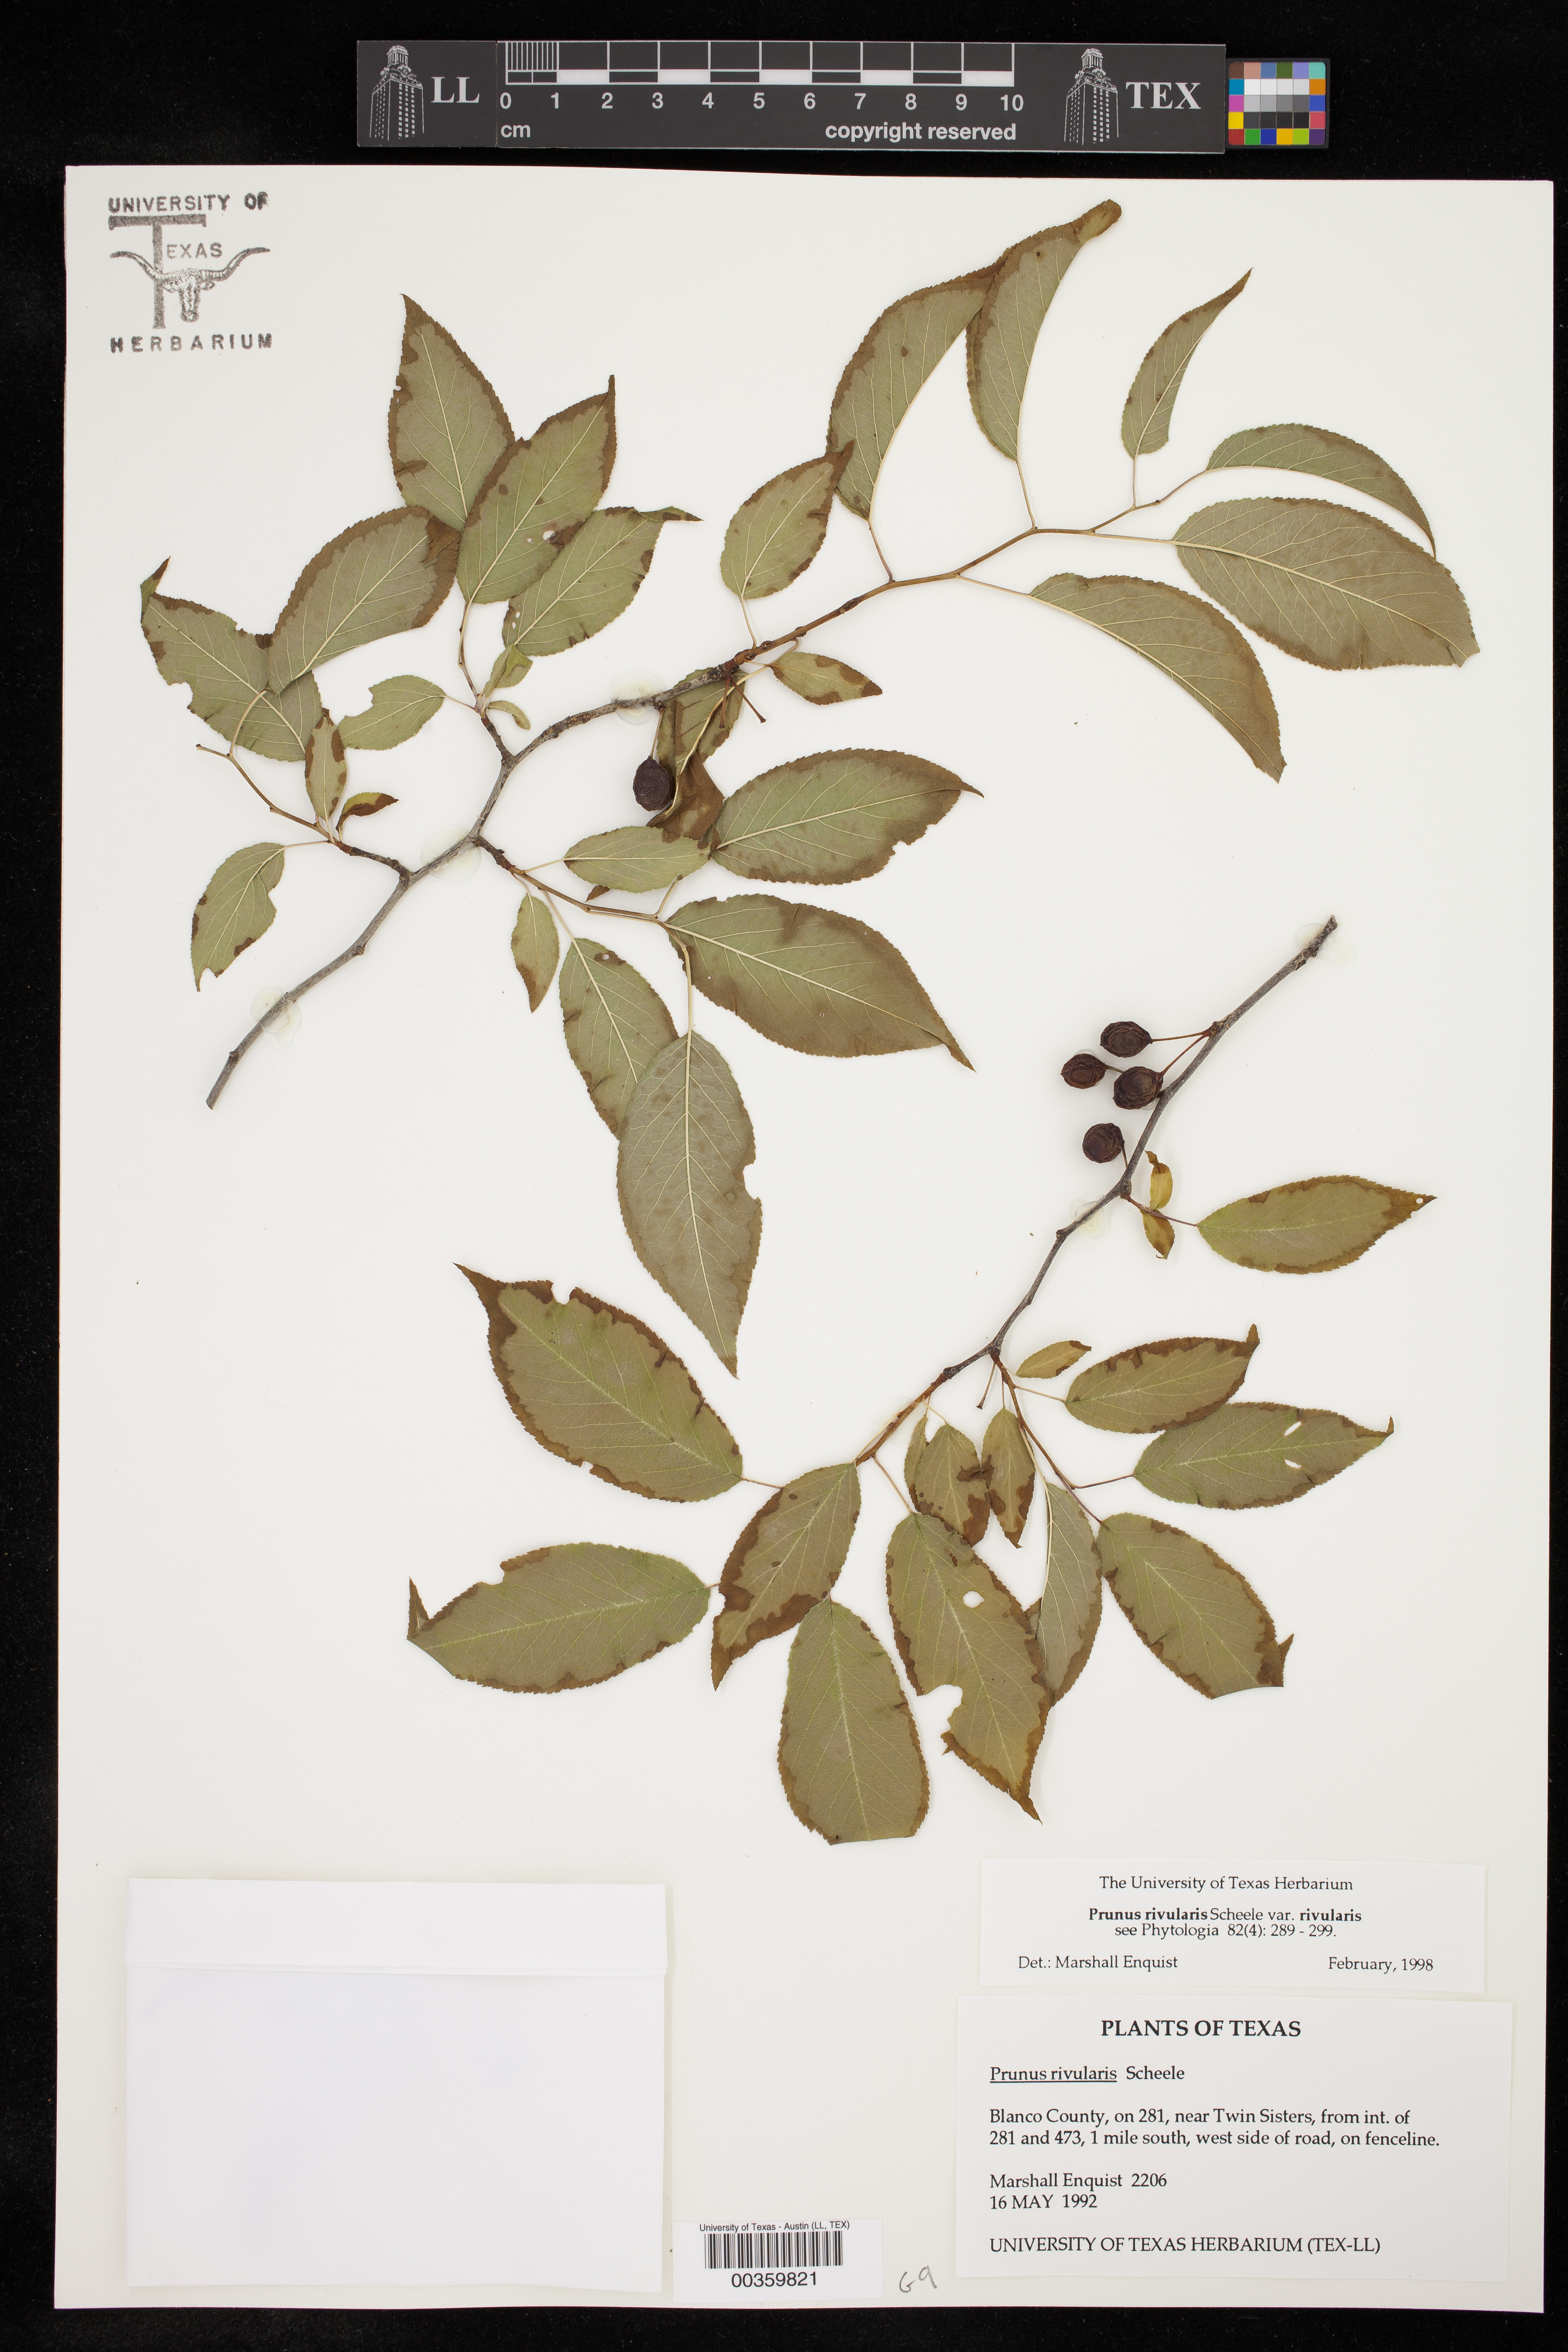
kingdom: Plantae
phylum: Tracheophyta
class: Magnoliopsida
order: Rosales
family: Rosaceae
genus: Prunus
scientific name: Prunus rivularis
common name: Creek plum
